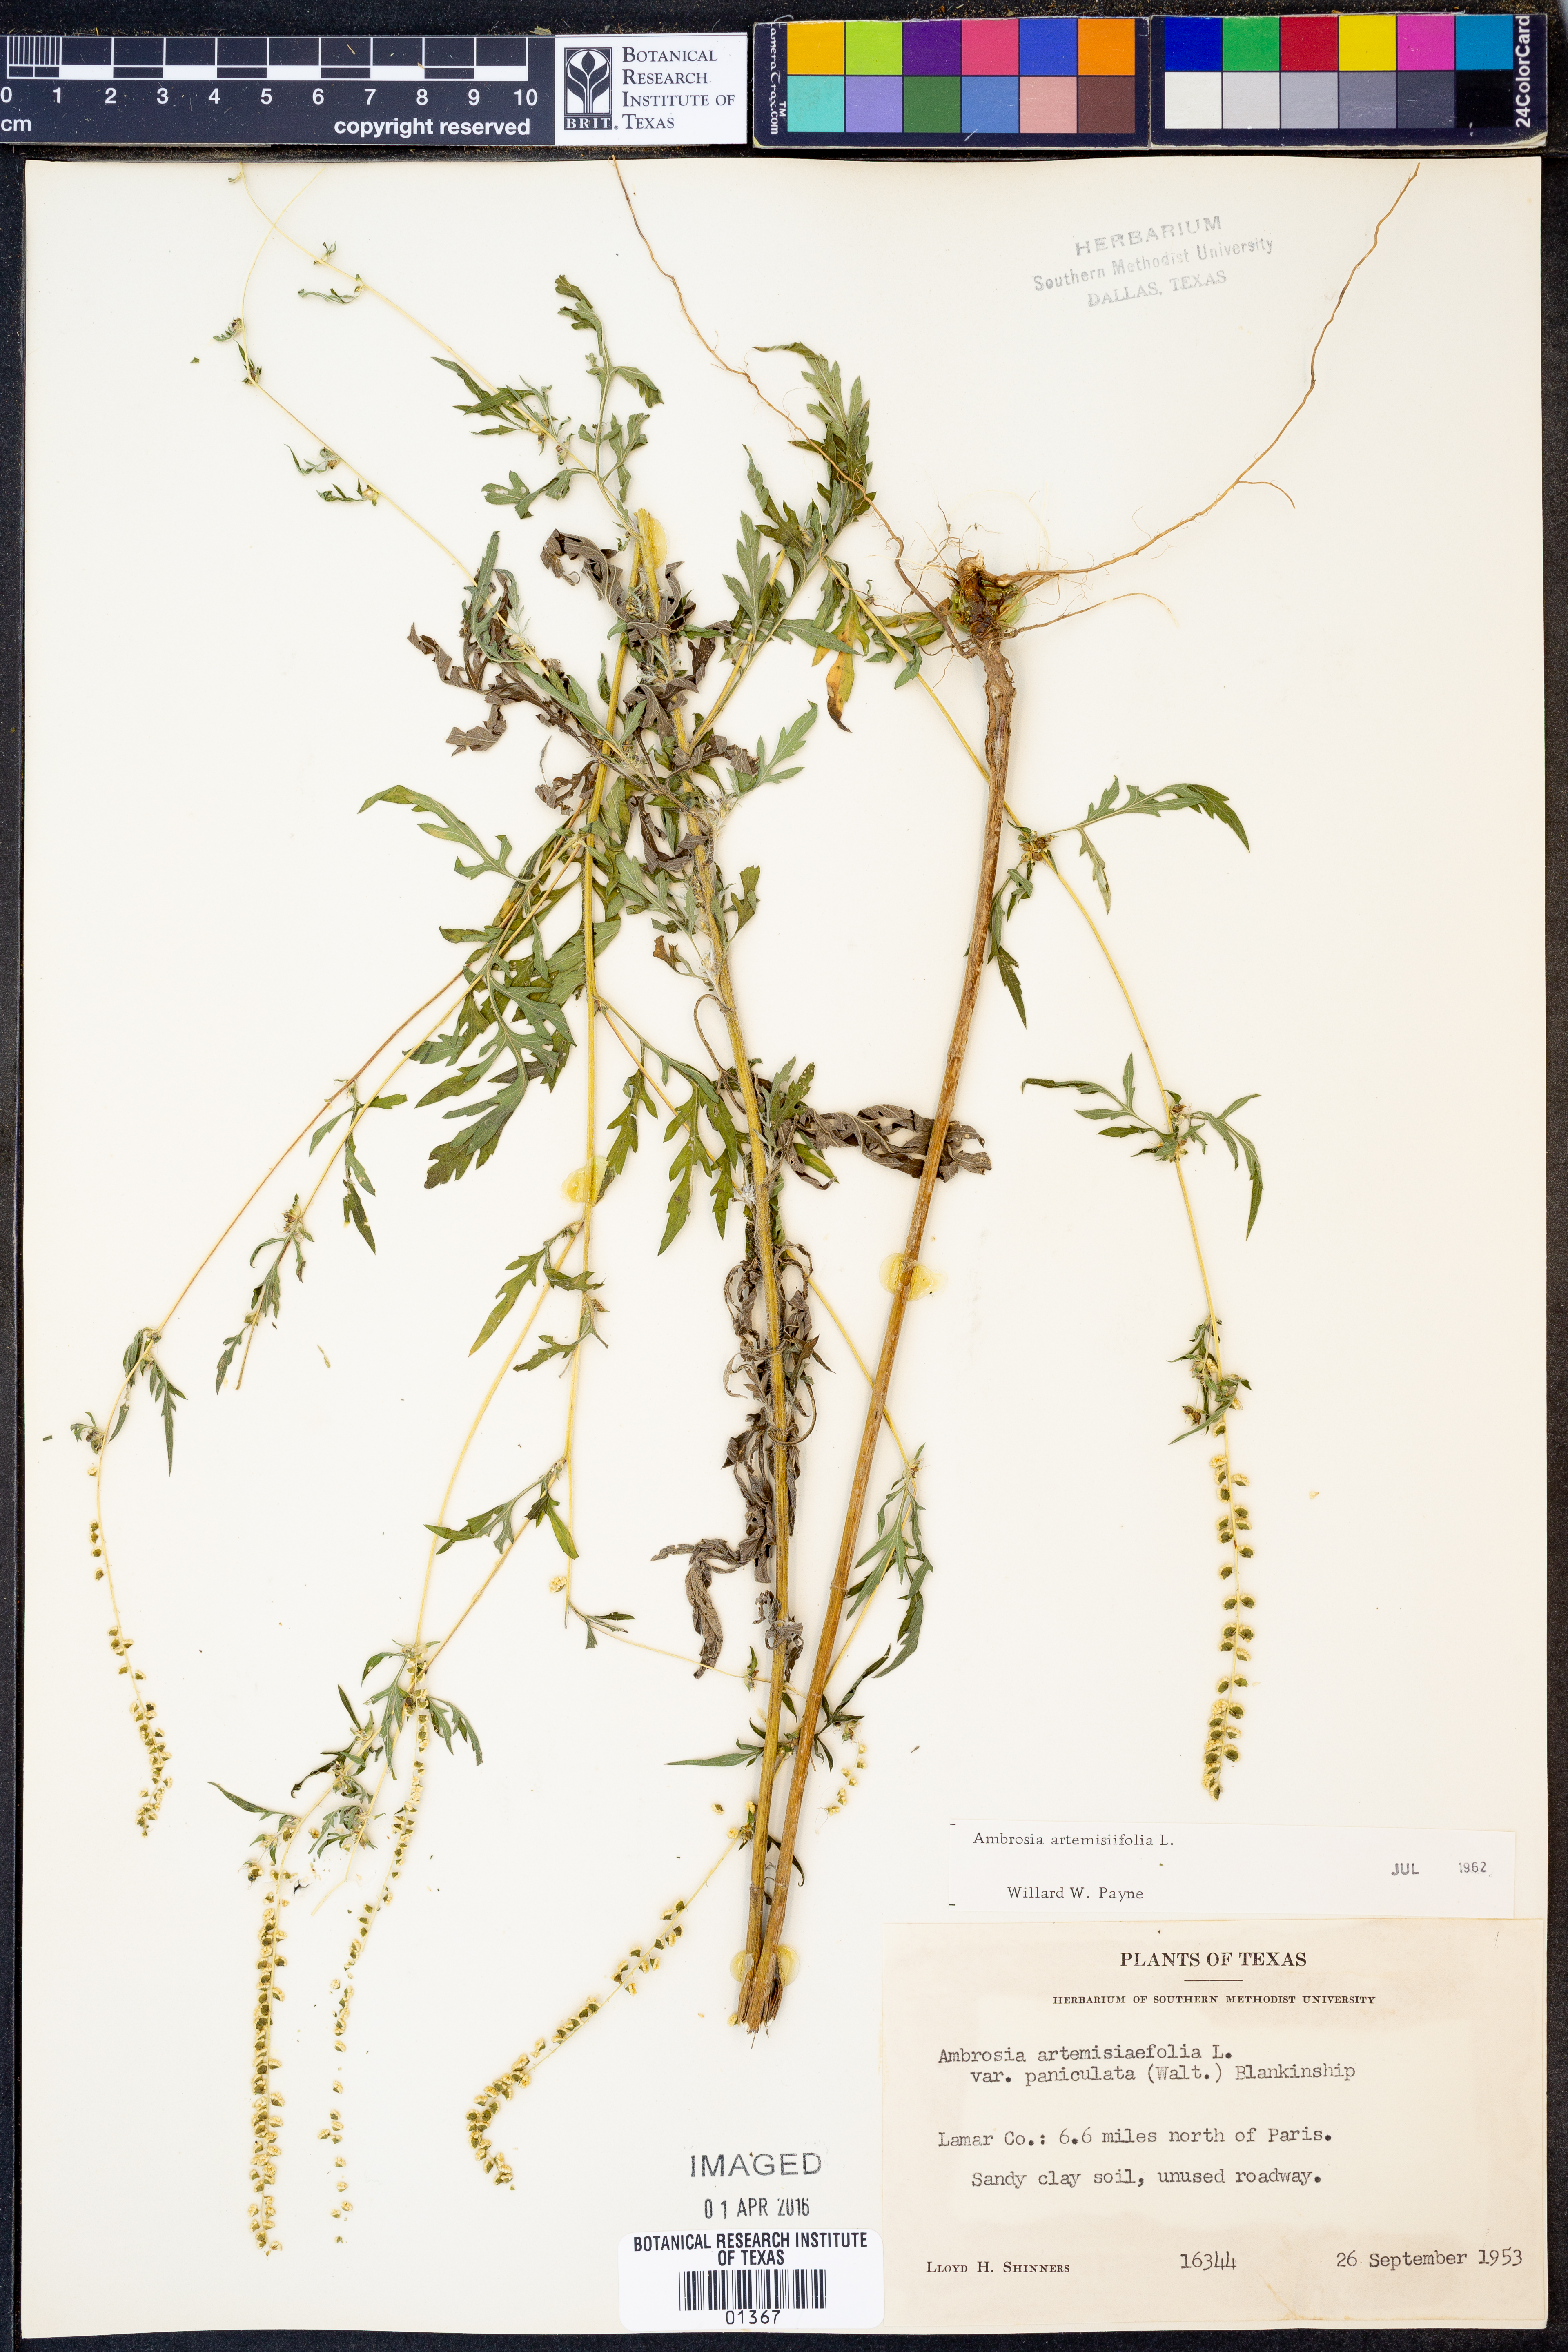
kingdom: Plantae
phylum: Tracheophyta
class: Magnoliopsida
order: Asterales
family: Asteraceae
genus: Ambrosia
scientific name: Ambrosia artemisiifolia
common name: Annual ragweed
